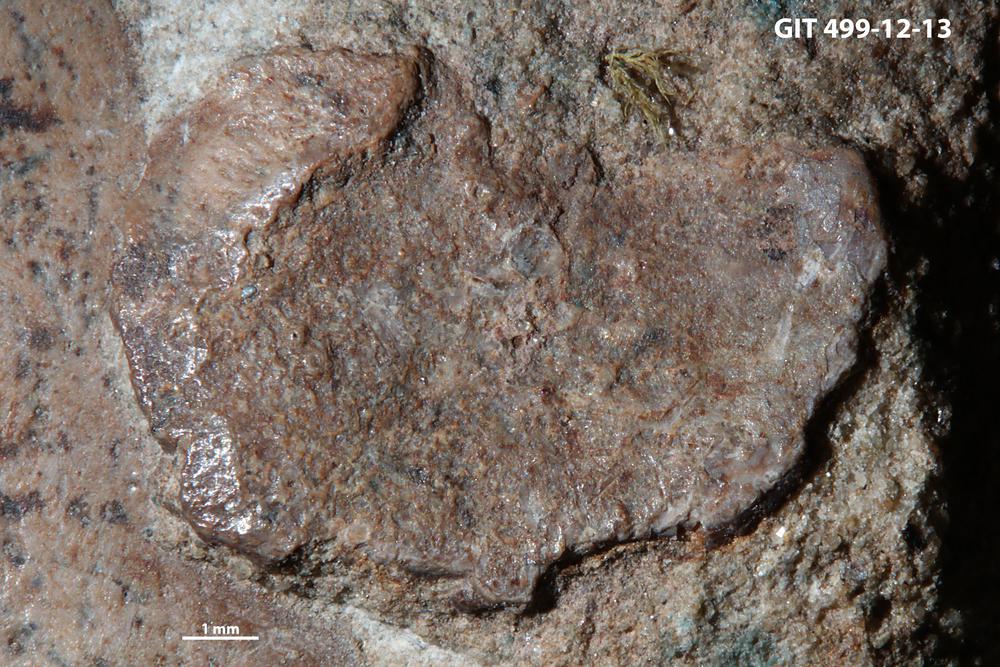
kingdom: Animalia
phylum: Chordata
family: Holoptychiidae
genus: Glyptolepis
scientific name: Glyptolepis
